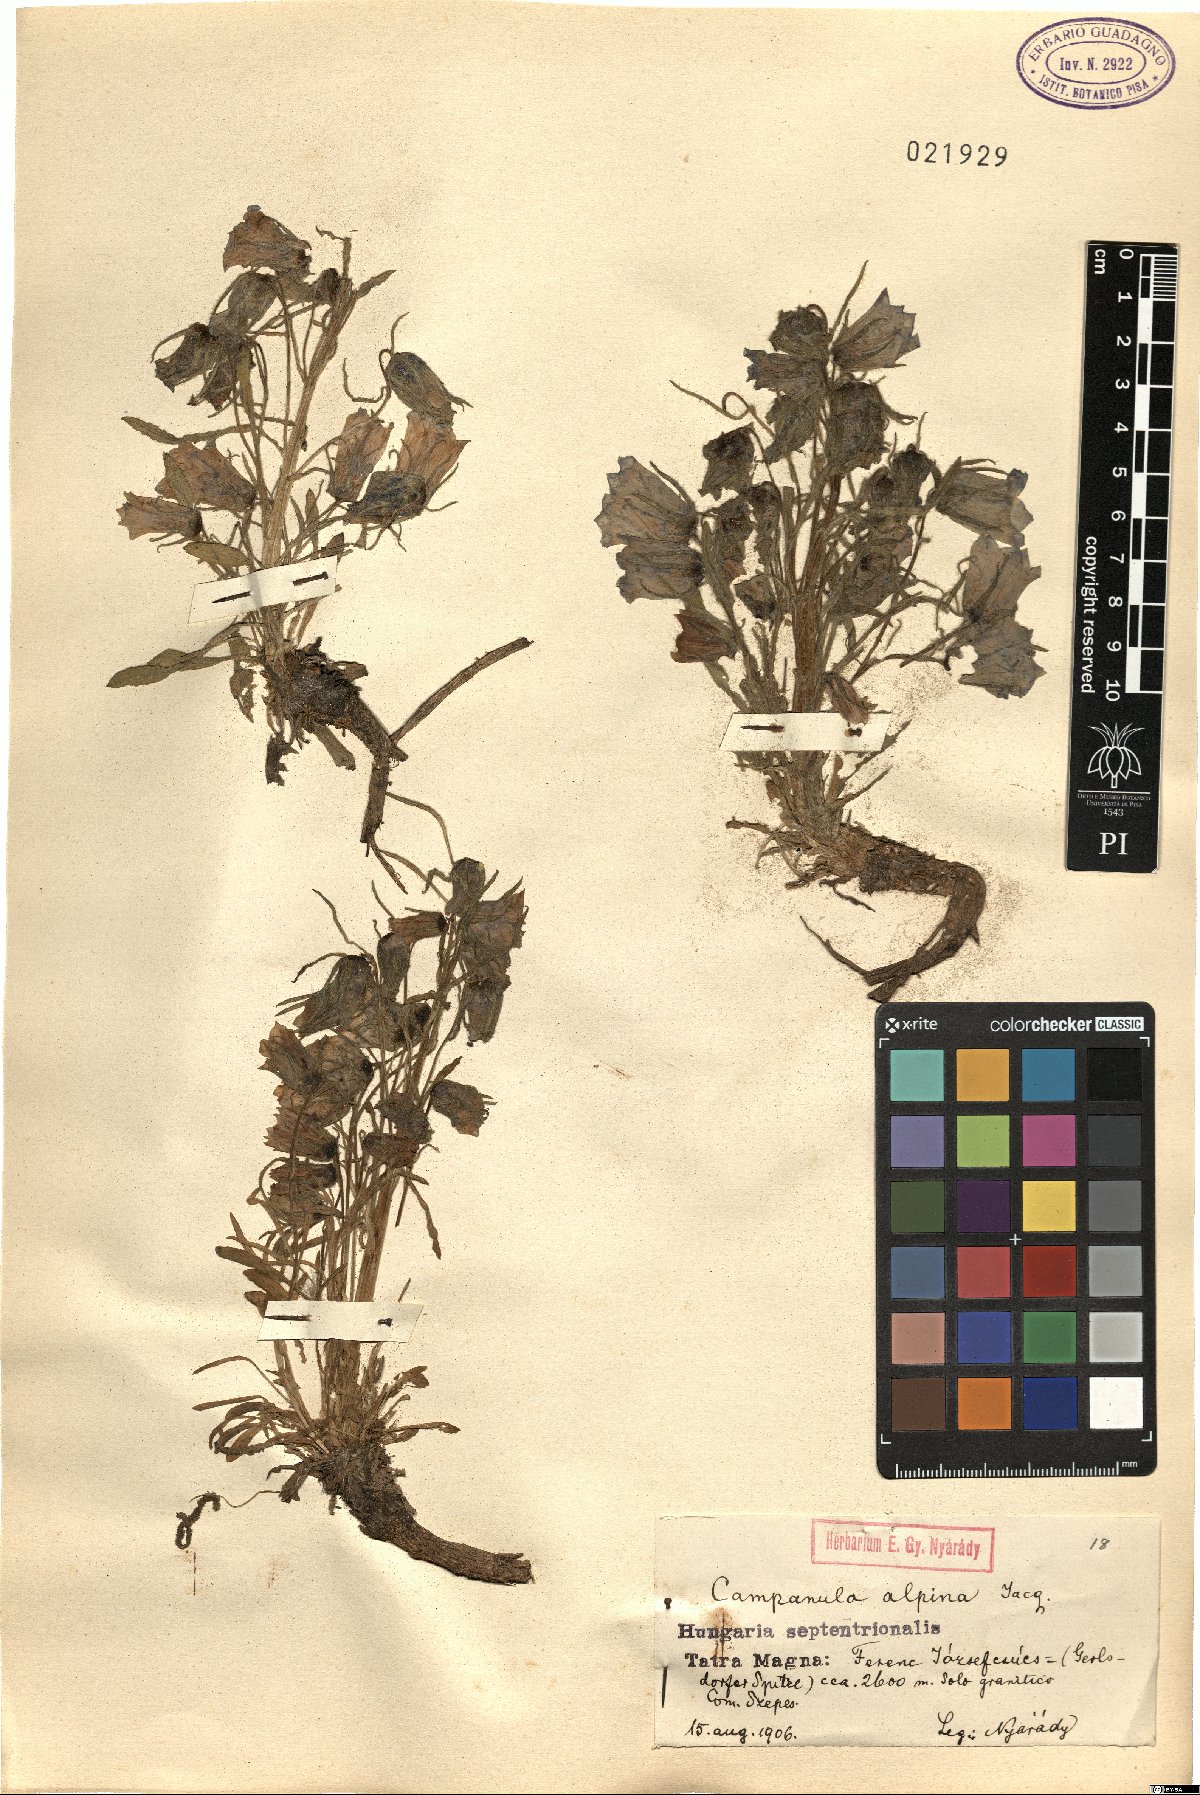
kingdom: Plantae
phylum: Tracheophyta
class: Magnoliopsida
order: Asterales
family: Campanulaceae
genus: Campanula
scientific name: Campanula alpina
